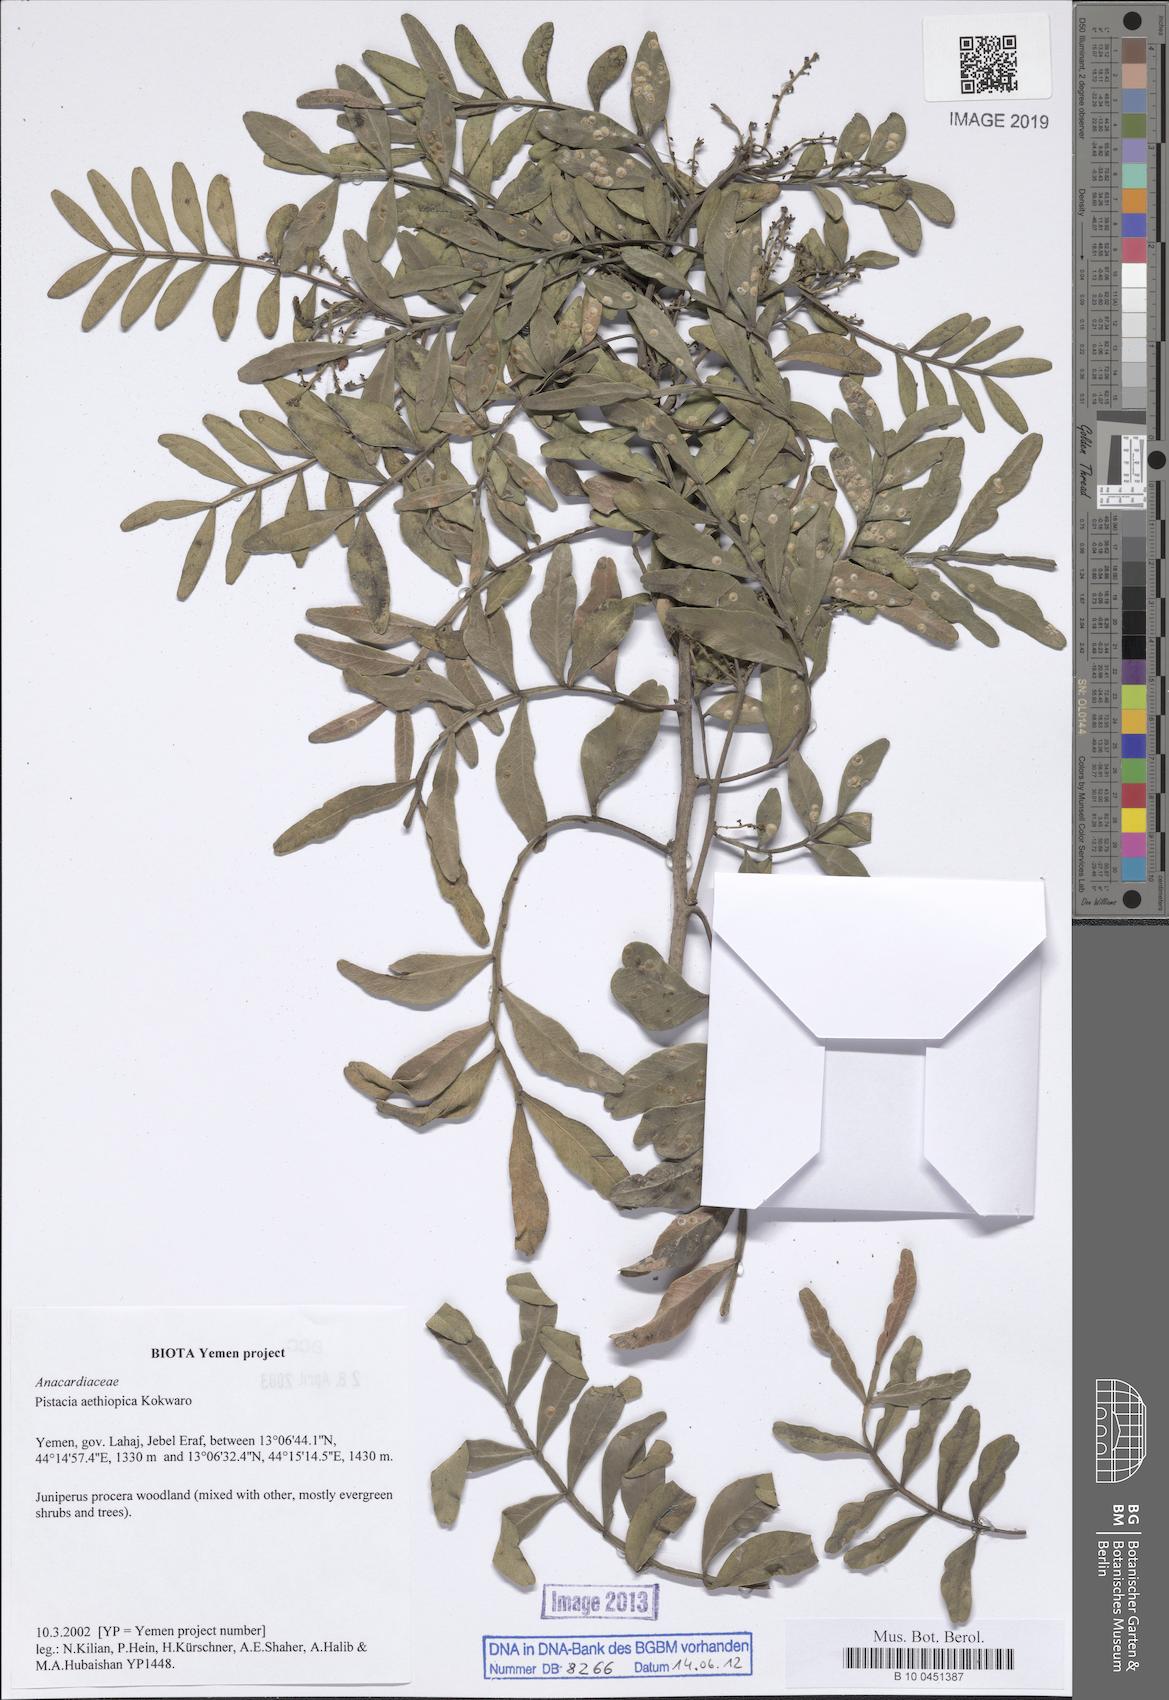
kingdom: Plantae
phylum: Tracheophyta
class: Magnoliopsida
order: Sapindales
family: Anacardiaceae
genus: Pistacia
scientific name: Pistacia lentiscus
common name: Lentisk
